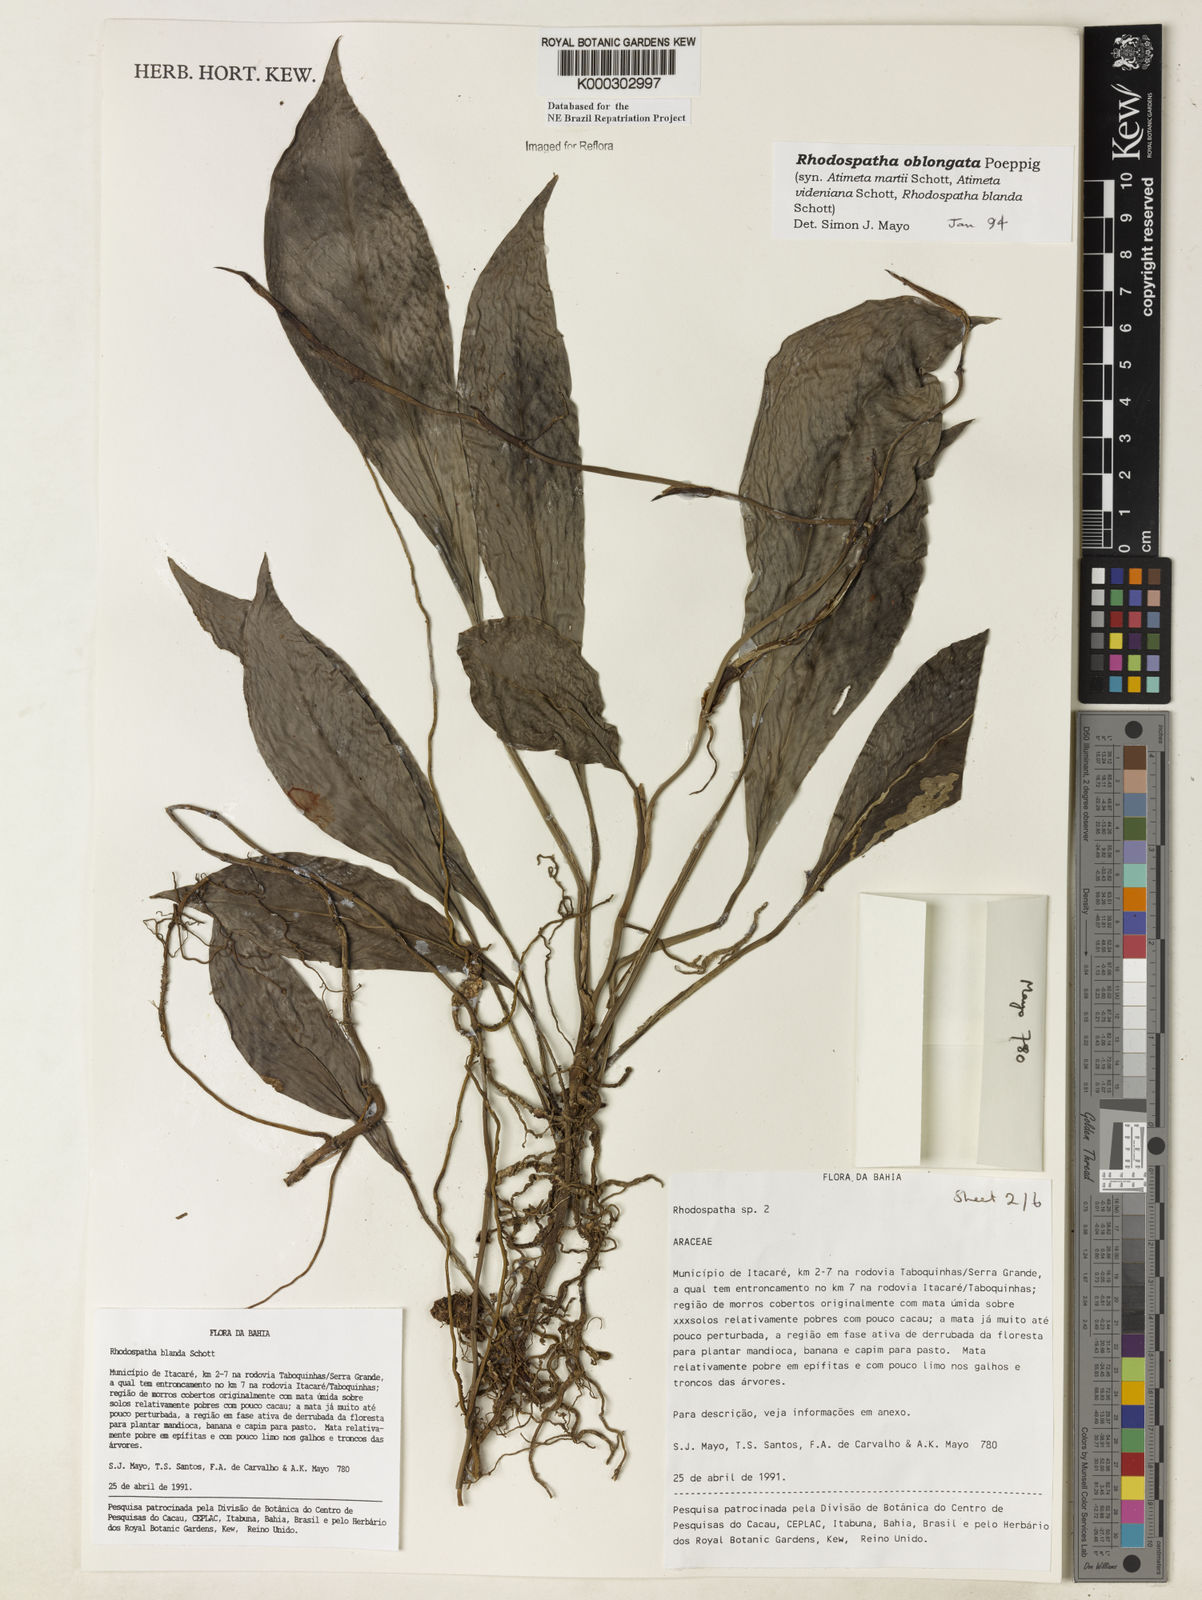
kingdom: Plantae
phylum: Tracheophyta
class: Liliopsida
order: Alismatales
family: Araceae
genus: Rhodospatha
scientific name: Rhodospatha oblongata
